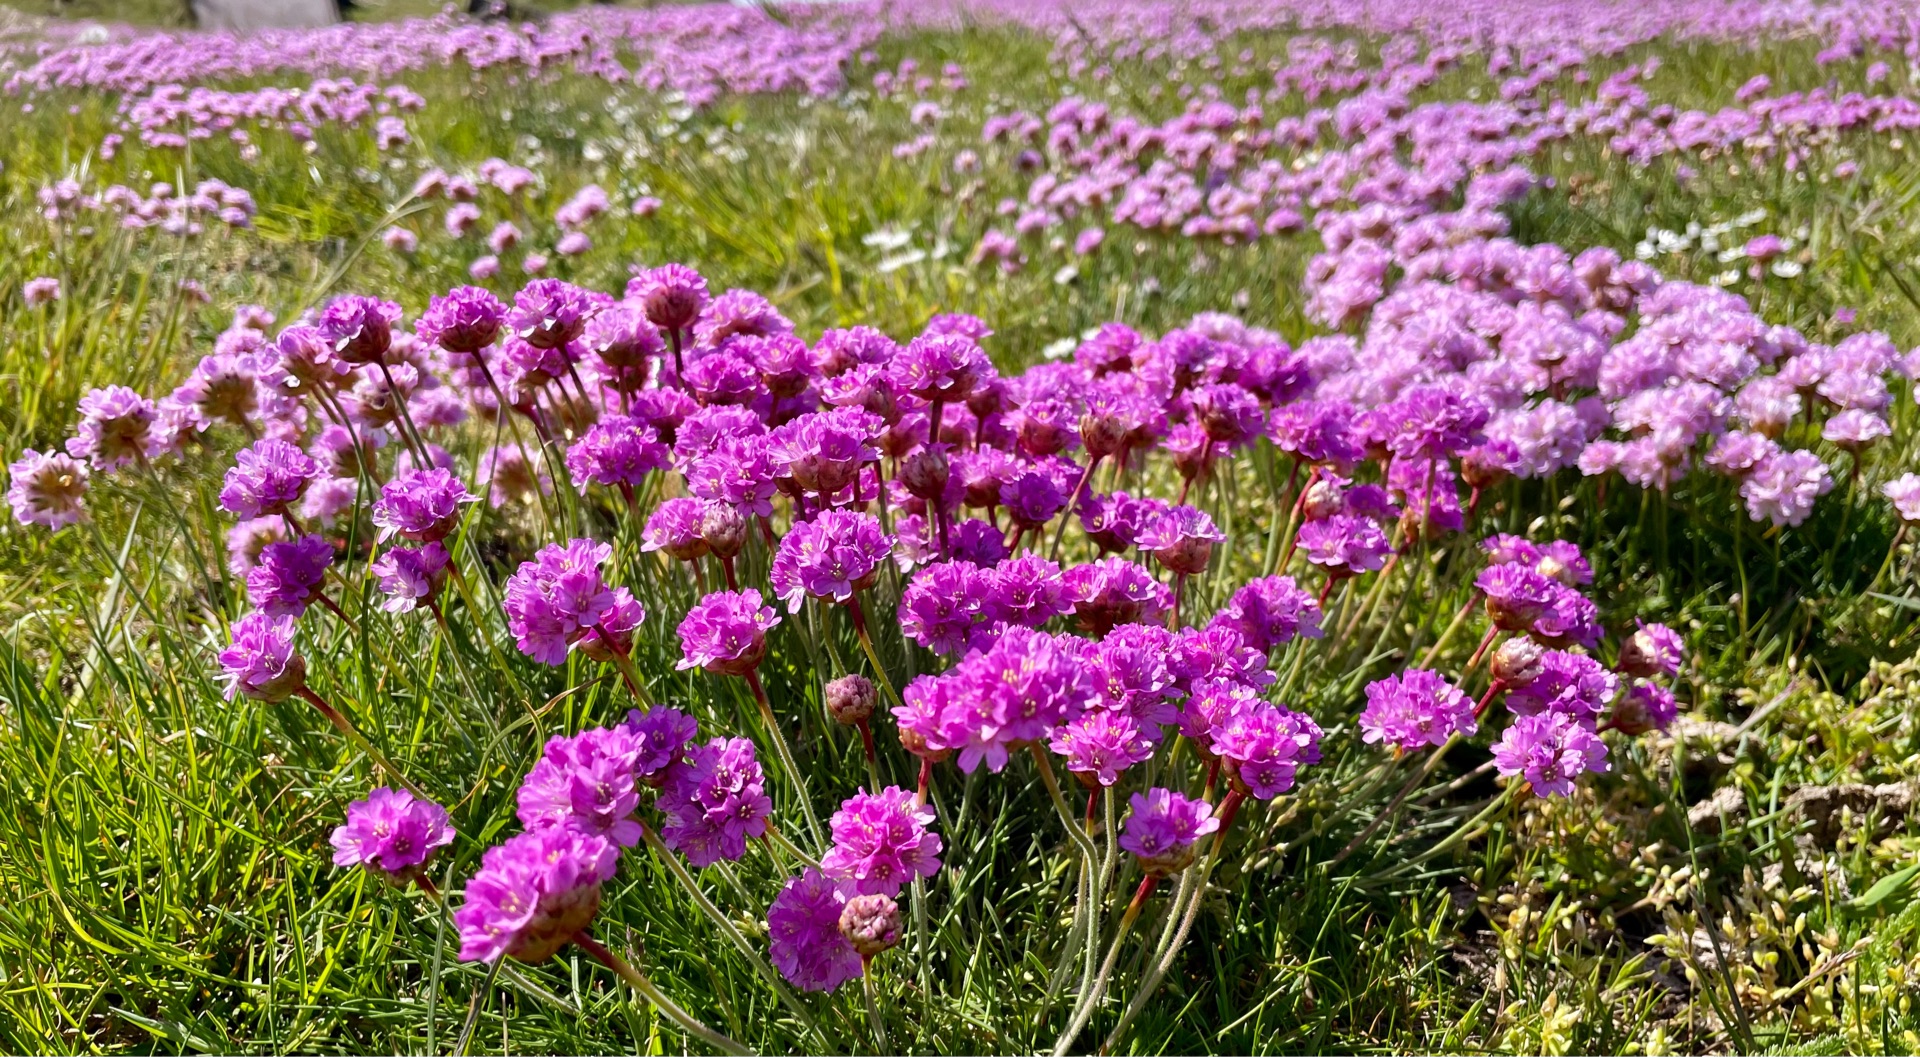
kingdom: Plantae
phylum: Tracheophyta
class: Magnoliopsida
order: Caryophyllales
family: Plumbaginaceae
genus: Armeria
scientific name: Armeria maritima
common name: Engelskgræs
